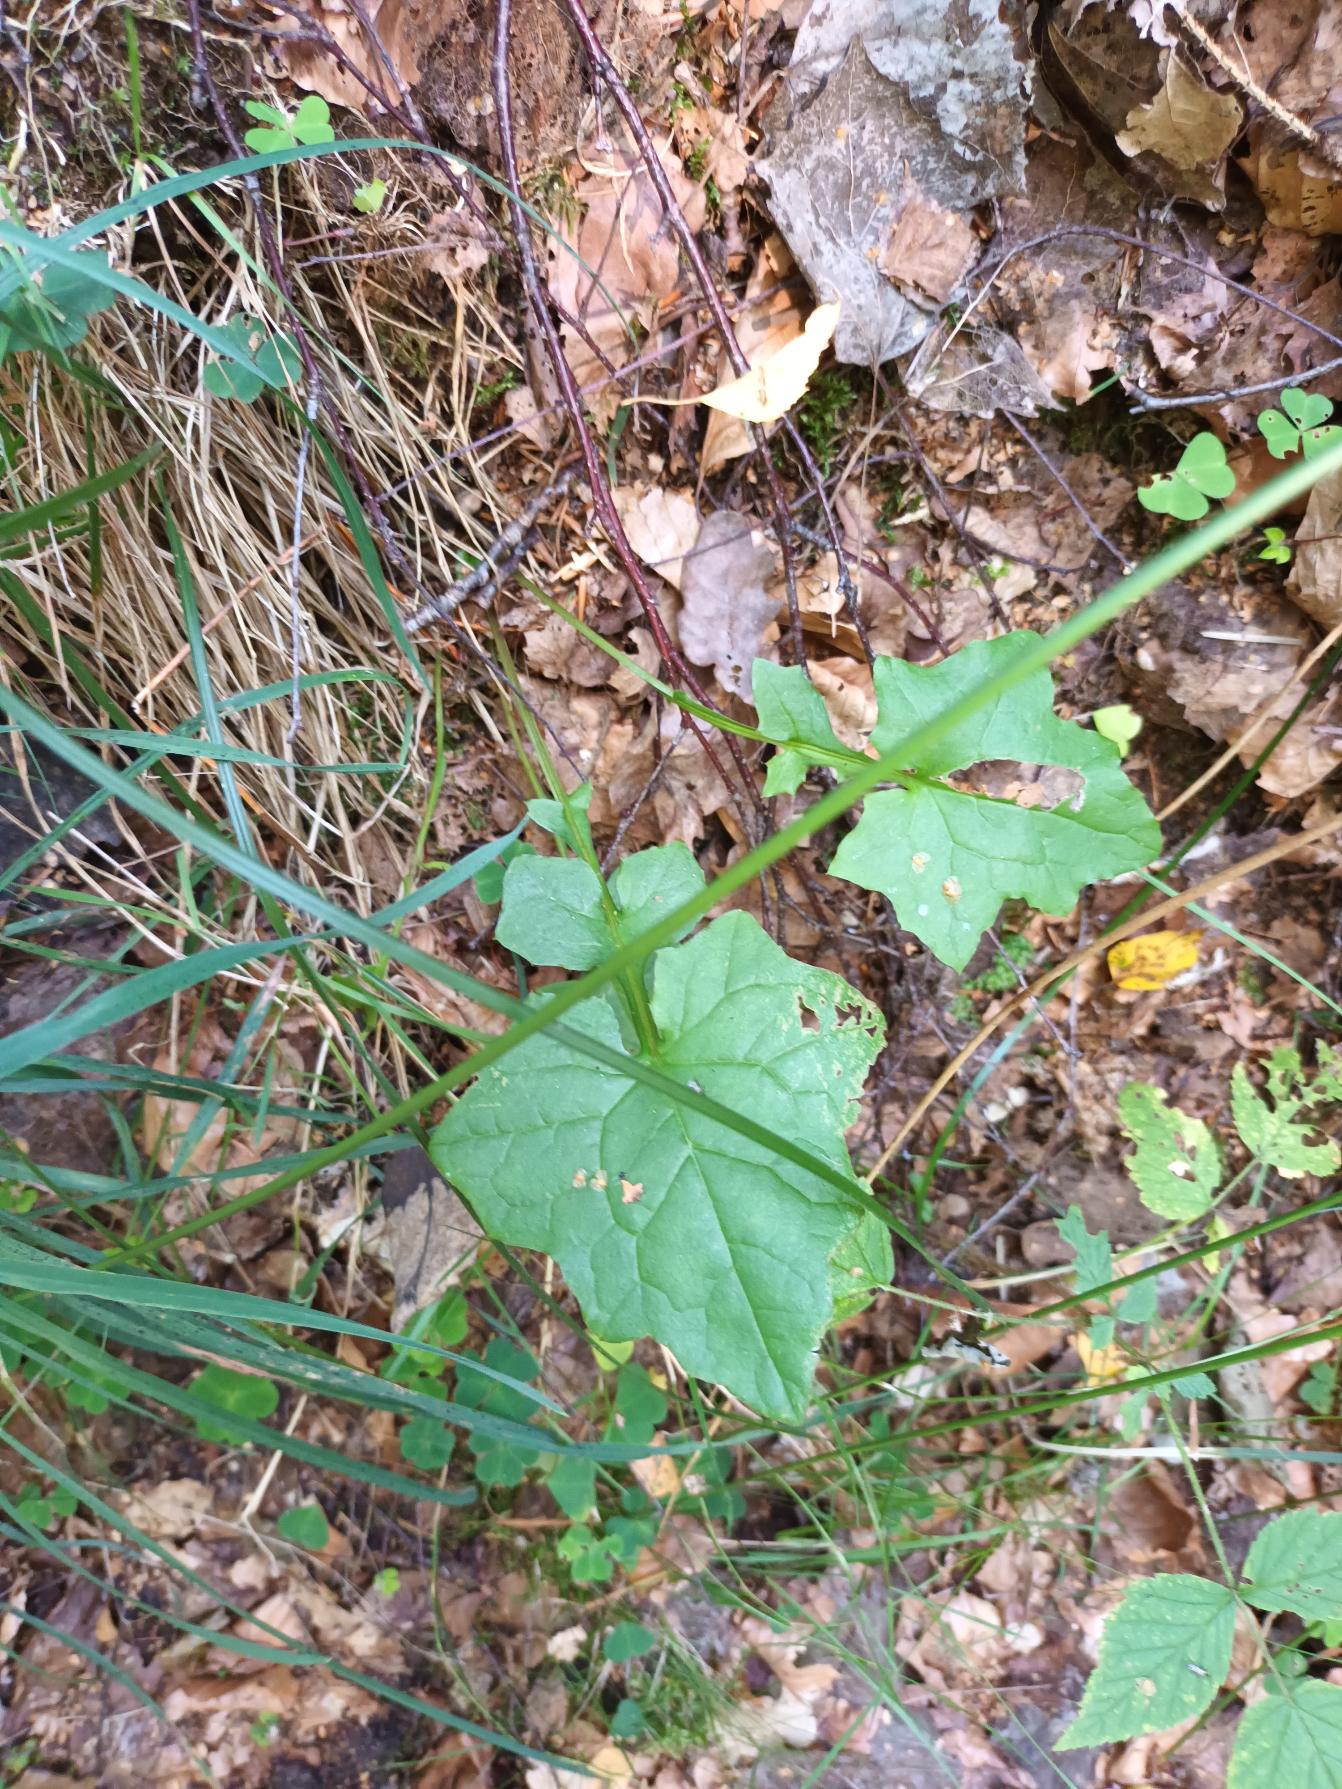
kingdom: Plantae
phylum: Tracheophyta
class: Magnoliopsida
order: Asterales
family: Asteraceae
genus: Mycelis
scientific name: Mycelis muralis
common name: Skov-salat
